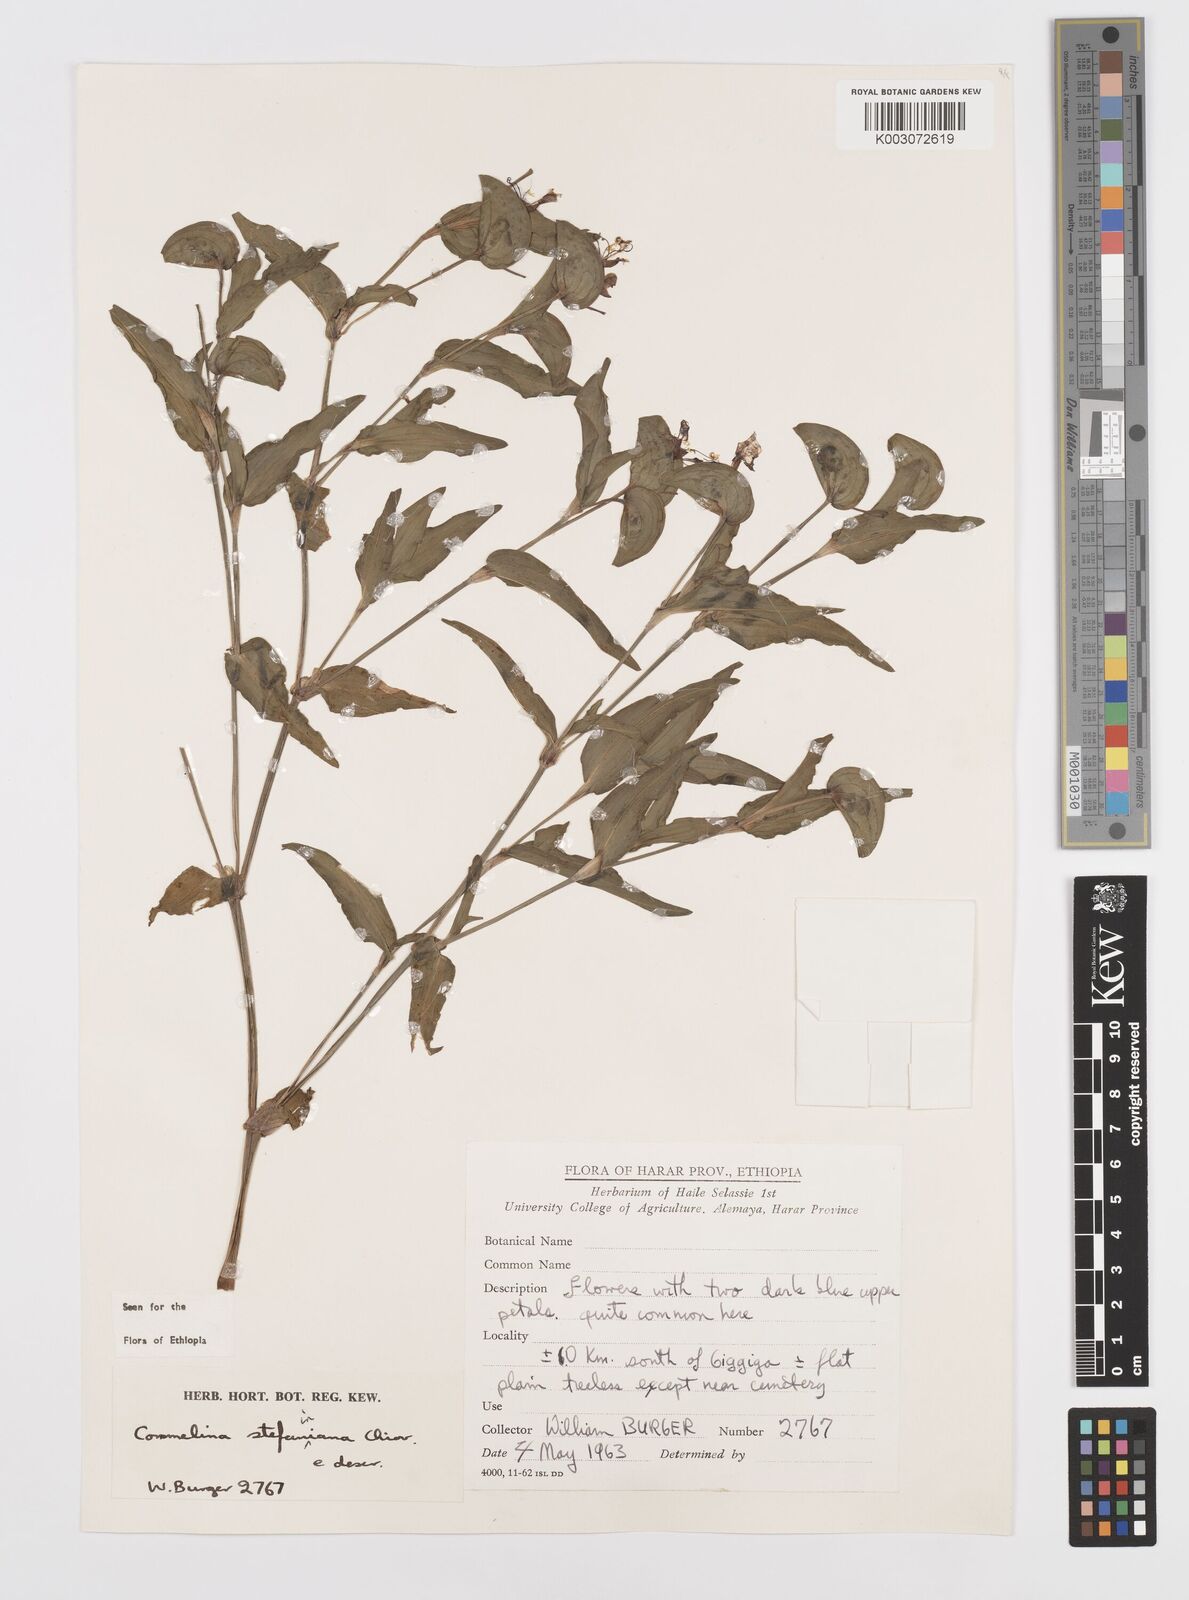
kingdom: Plantae
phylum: Tracheophyta
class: Liliopsida
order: Commelinales
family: Commelinaceae
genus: Commelina
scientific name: Commelina stefaniniana
